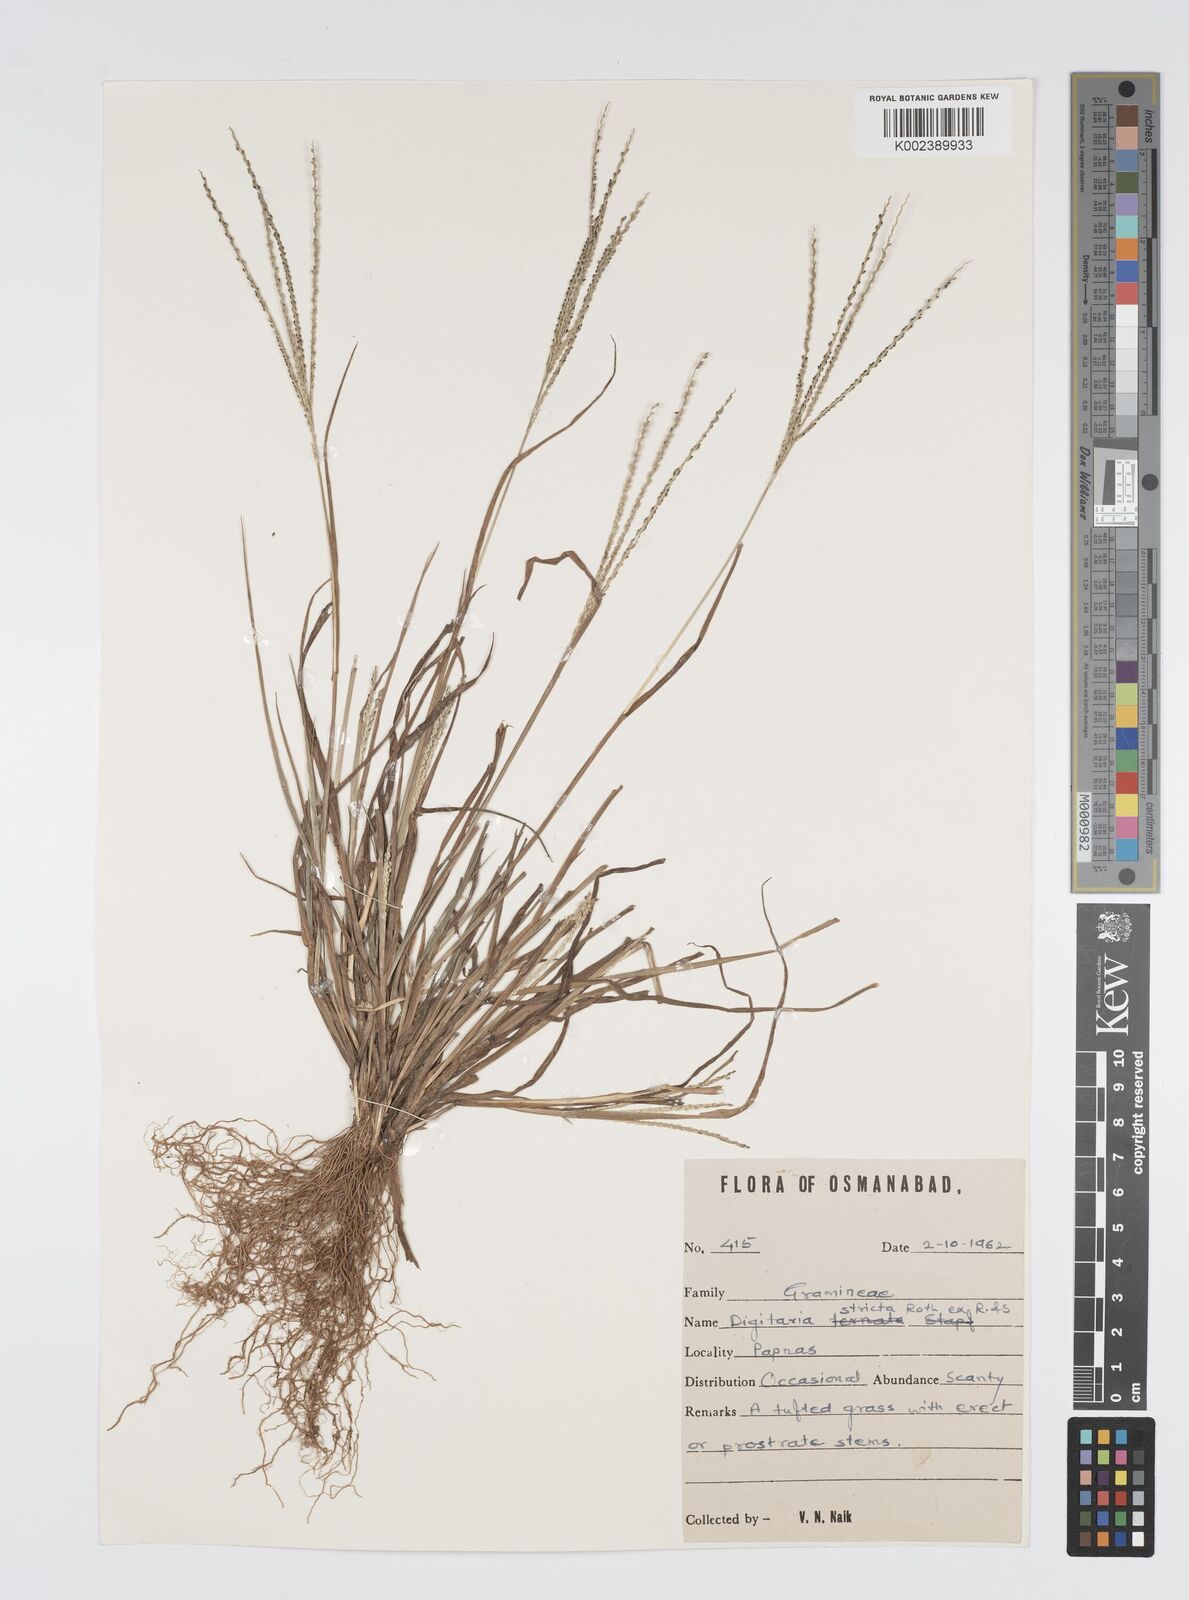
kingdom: Plantae
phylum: Tracheophyta
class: Liliopsida
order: Poales
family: Poaceae
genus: Digitaria
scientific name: Digitaria stricta
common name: Crabgrass
